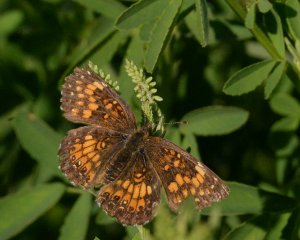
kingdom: Animalia
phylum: Arthropoda
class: Insecta
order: Lepidoptera
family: Nymphalidae
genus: Chlosyne
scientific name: Chlosyne harrisii
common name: Harris's Checkerspot
